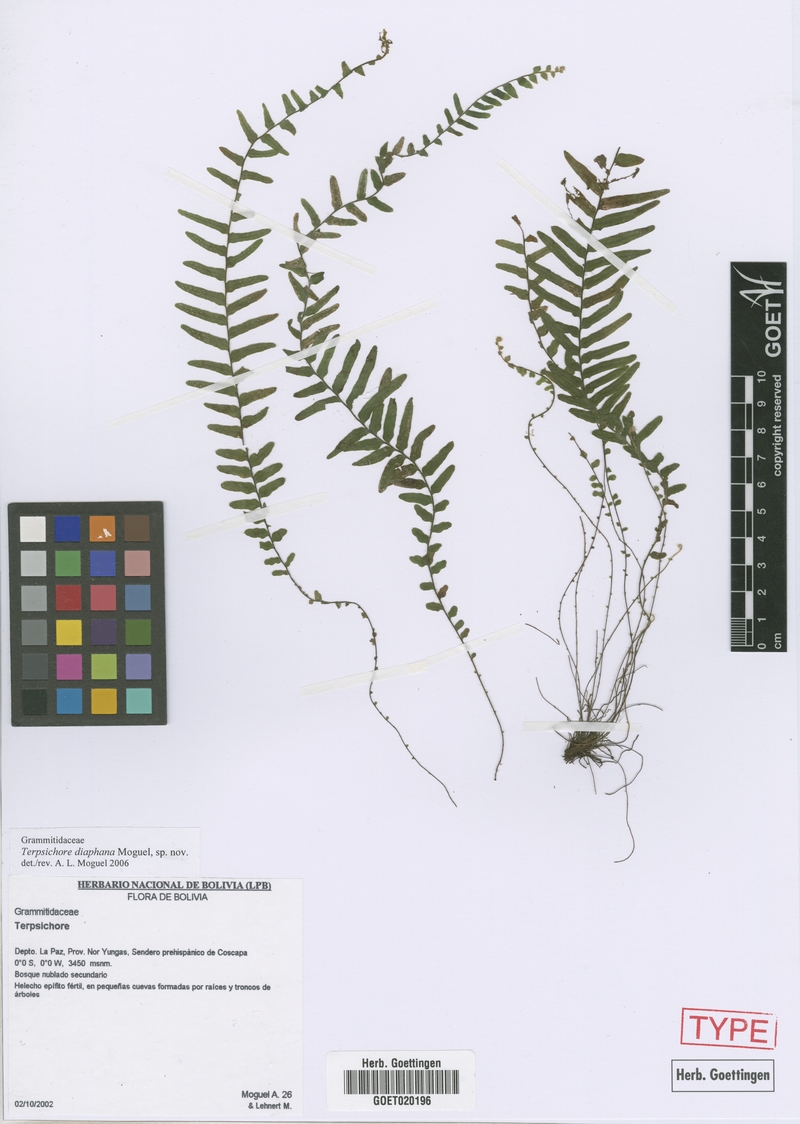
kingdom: Plantae
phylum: Tracheophyta
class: Polypodiopsida
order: Polypodiales
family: Polypodiaceae
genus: Alansmia
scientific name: Alansmia diaphana
